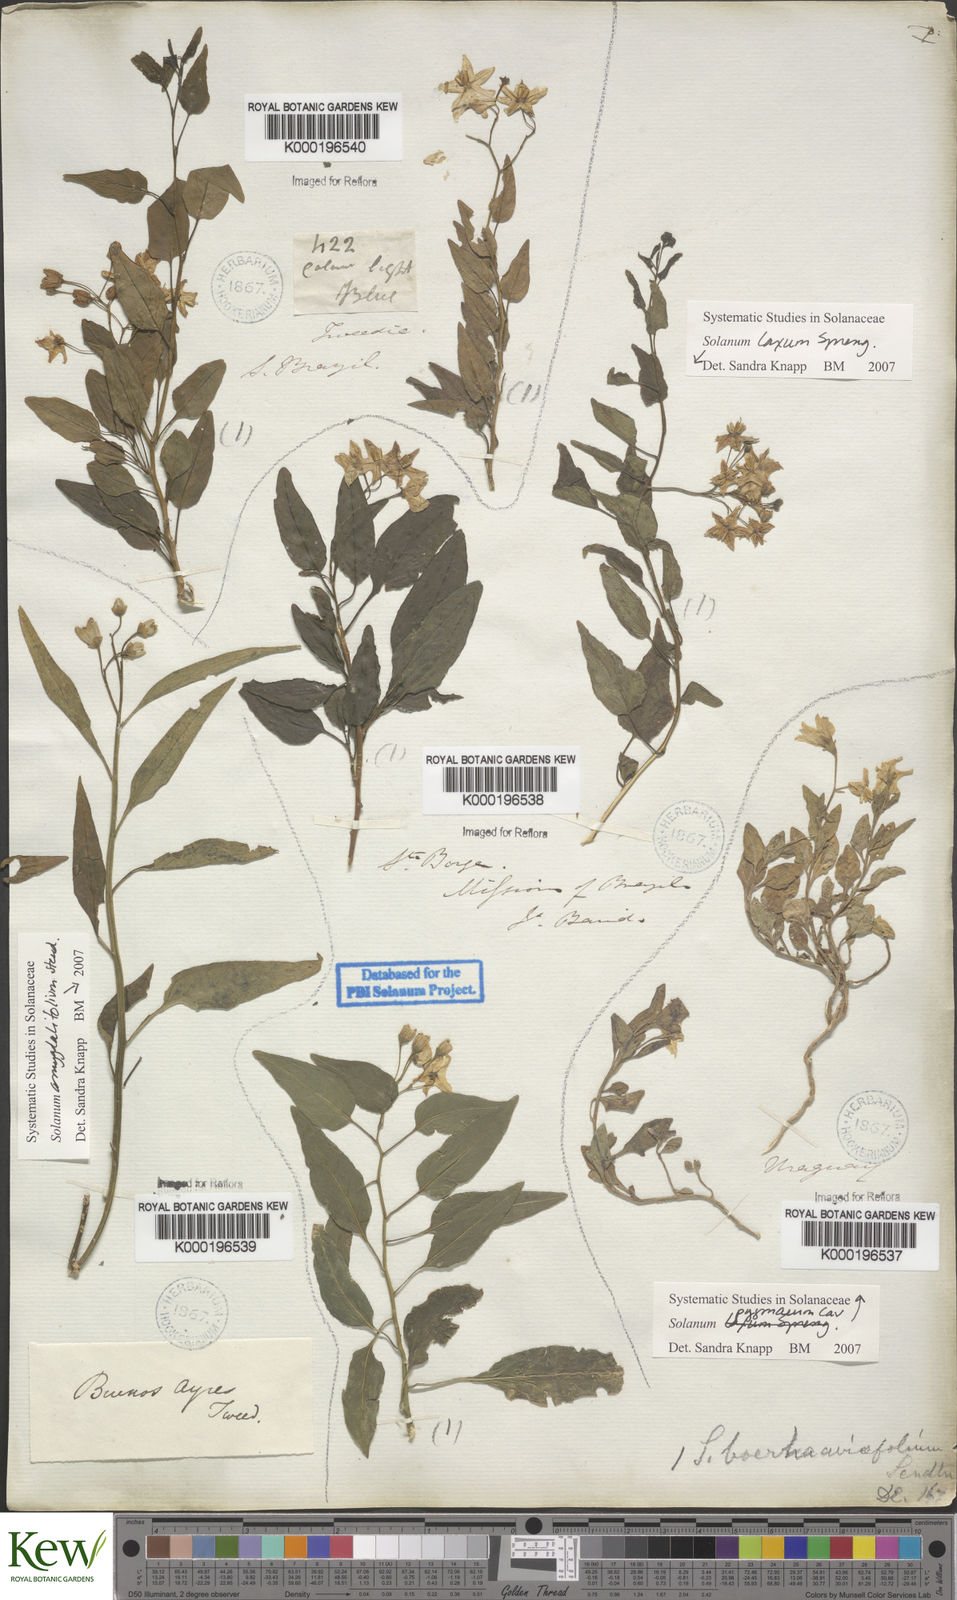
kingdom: Plantae
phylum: Tracheophyta
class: Magnoliopsida
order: Solanales
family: Solanaceae
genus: Solanum
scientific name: Solanum pygmaeum
